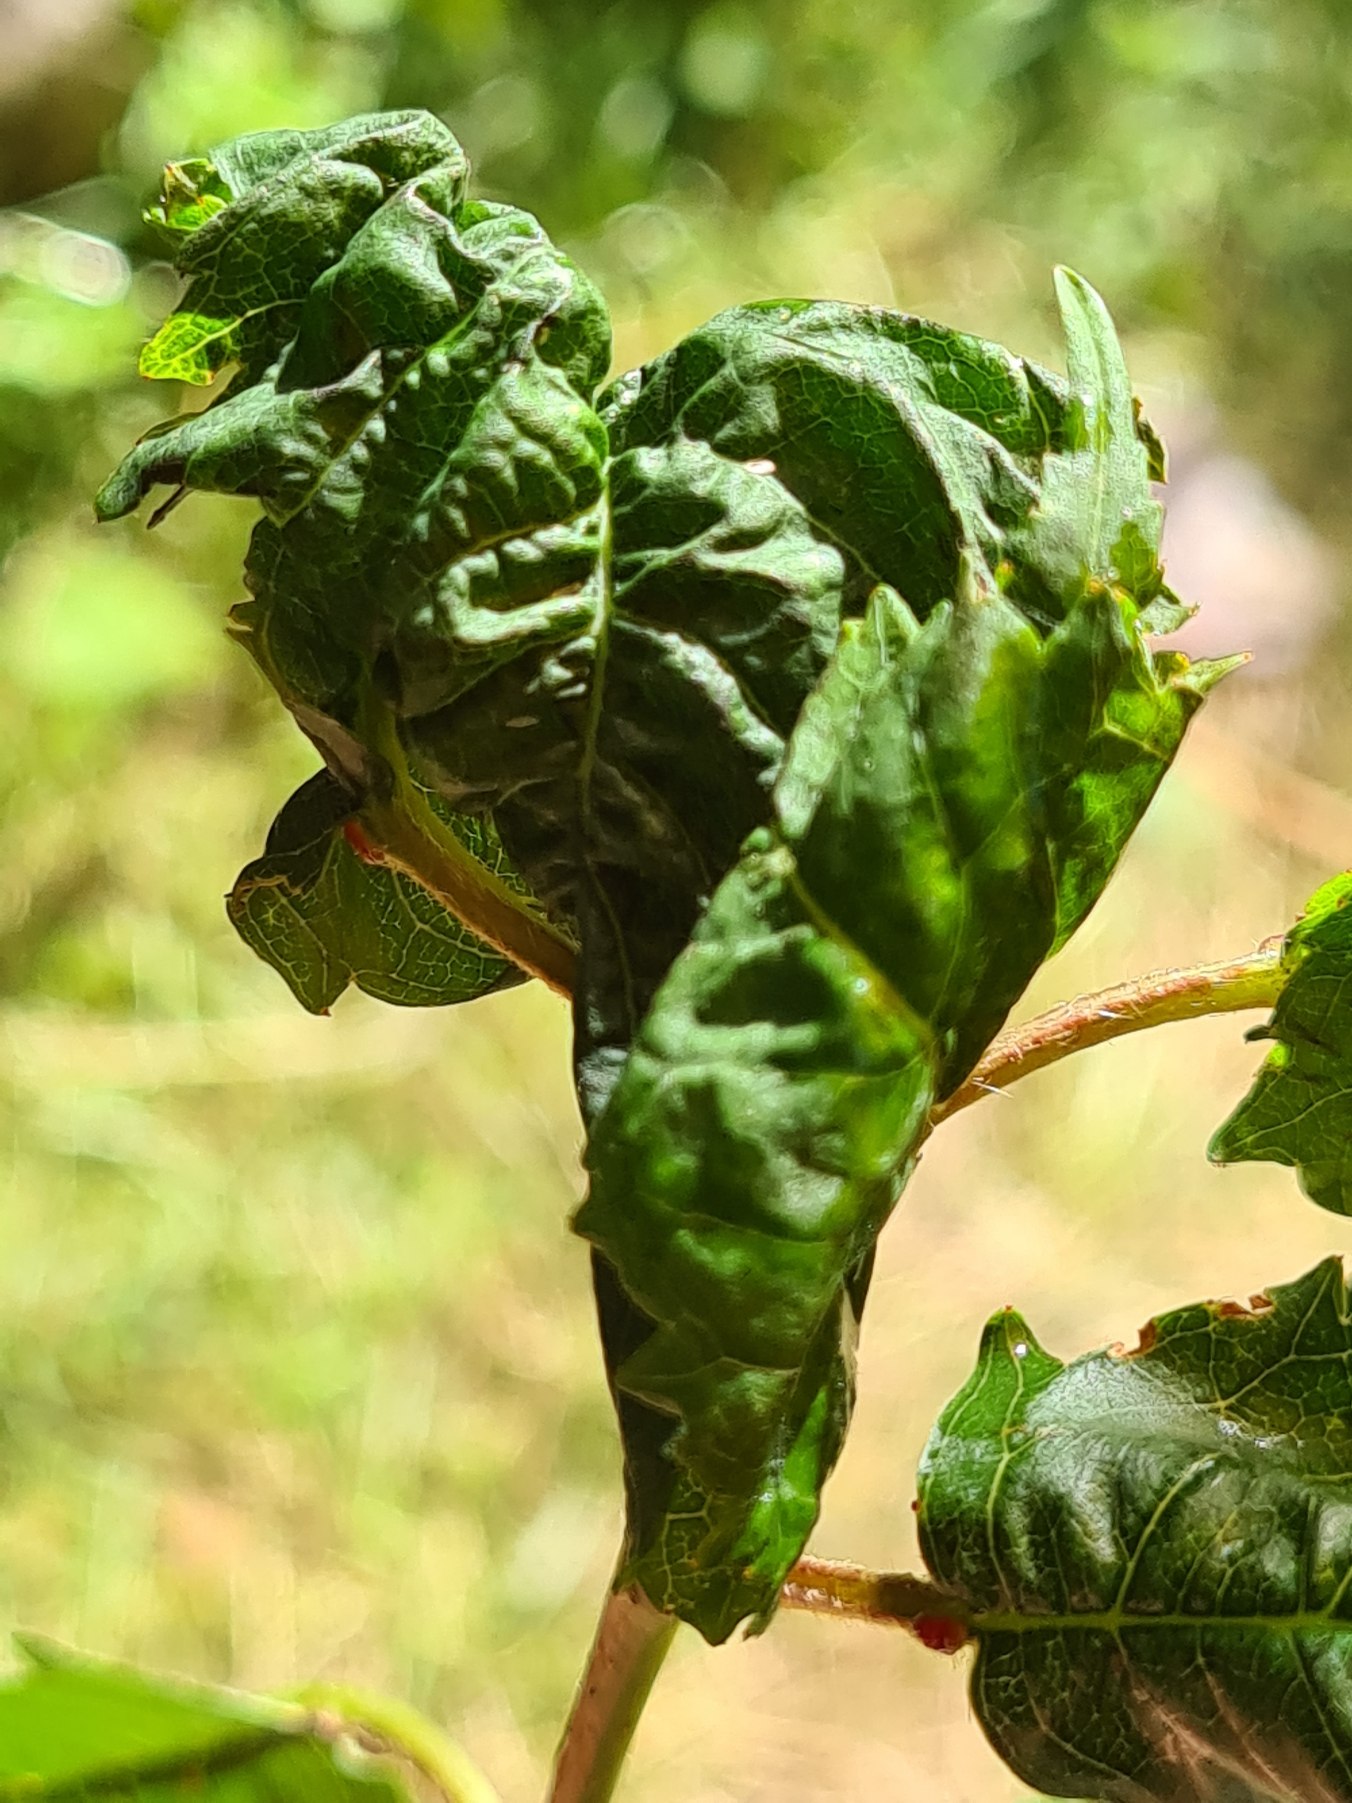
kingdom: Animalia
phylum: Arthropoda
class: Insecta
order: Hemiptera
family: Aphididae
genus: Myzus
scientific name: Myzus cerasi
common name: Kirsebærbladlus
